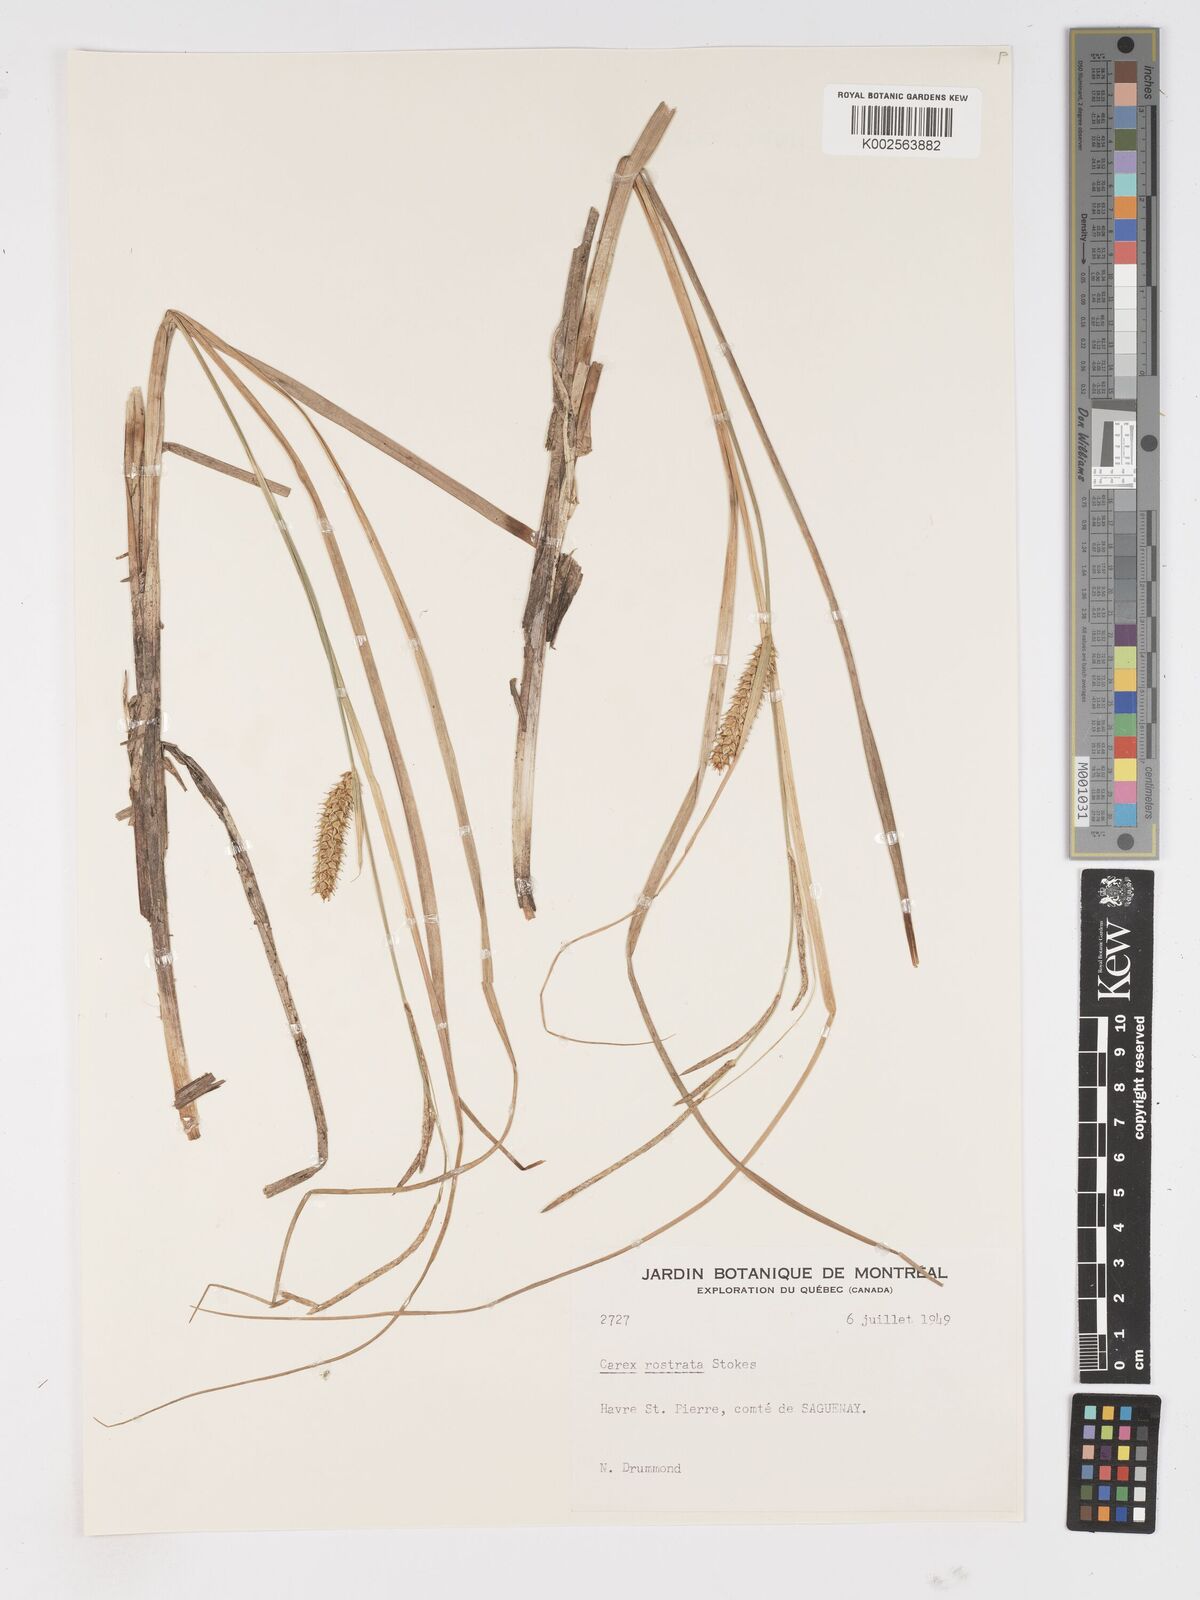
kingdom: Plantae
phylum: Tracheophyta
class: Liliopsida
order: Poales
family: Cyperaceae
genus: Carex
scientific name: Carex rostrata
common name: Bottle sedge
